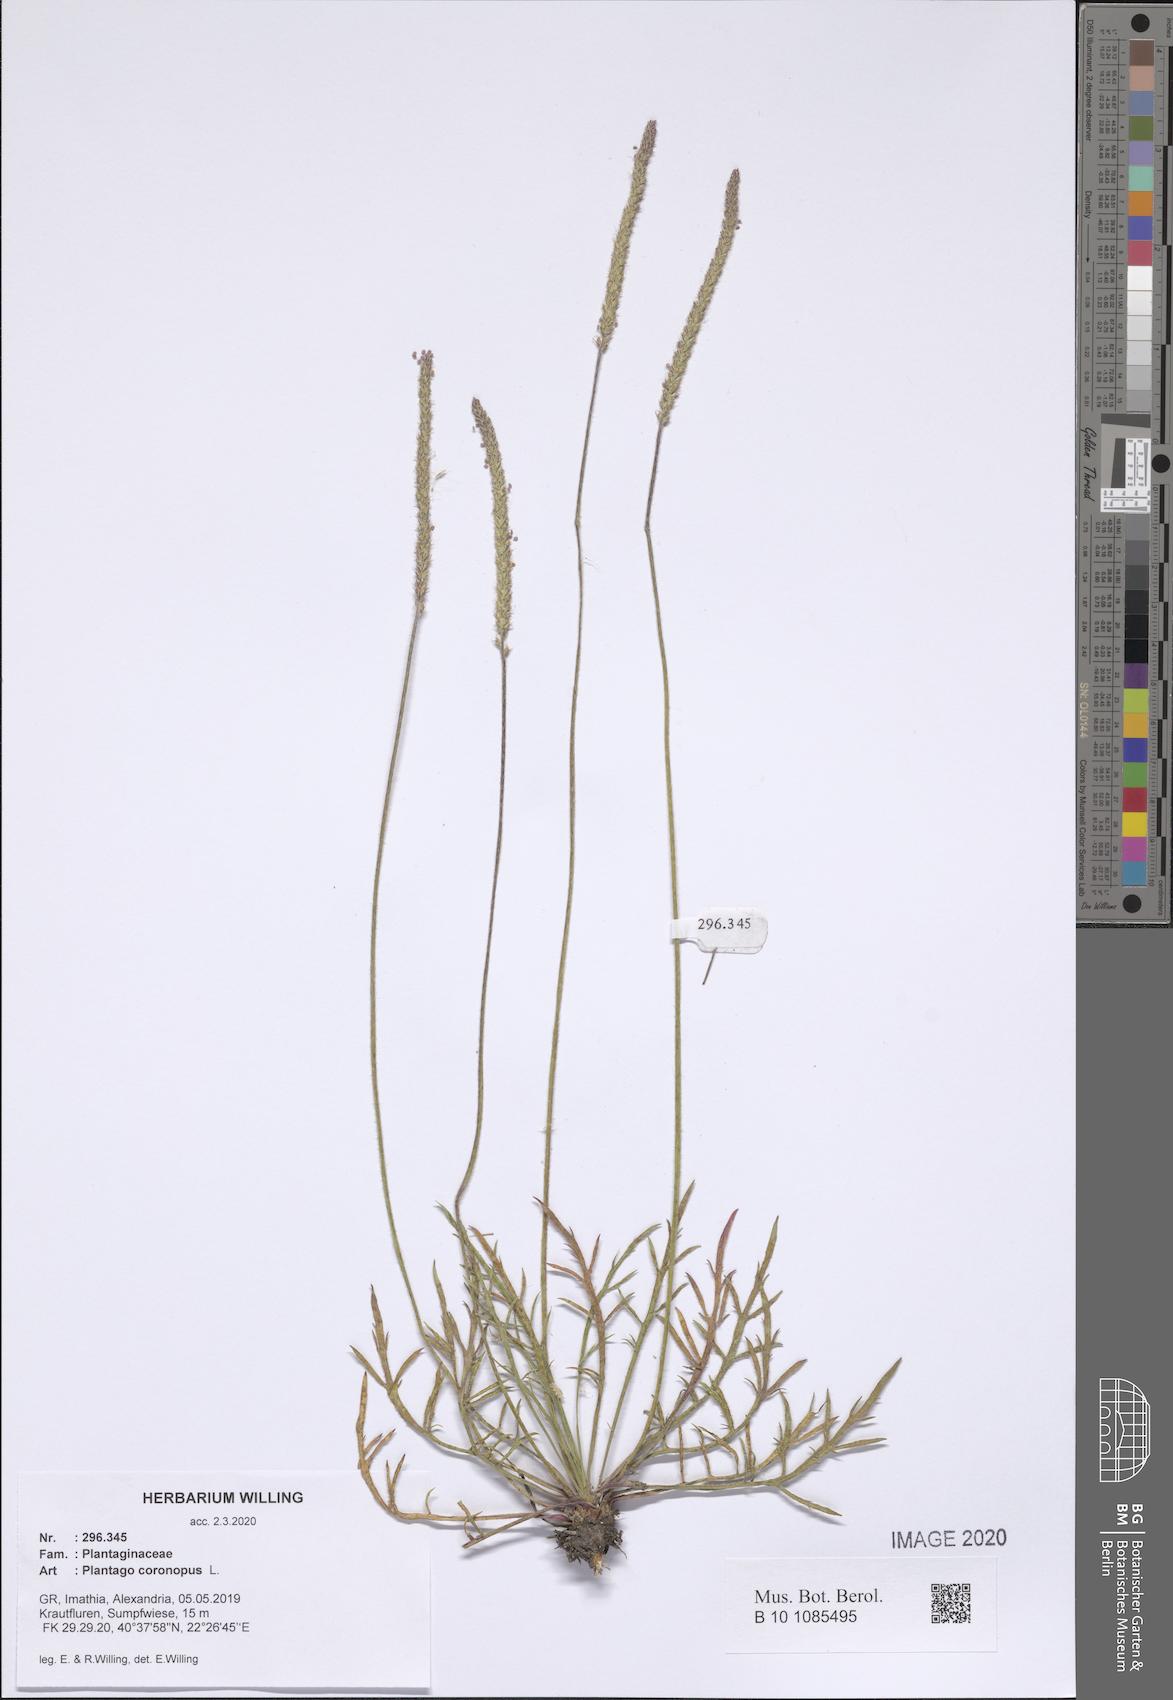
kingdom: Plantae
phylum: Tracheophyta
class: Magnoliopsida
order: Lamiales
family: Plantaginaceae
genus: Plantago
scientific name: Plantago coronopus
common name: Buck's-horn plantain
